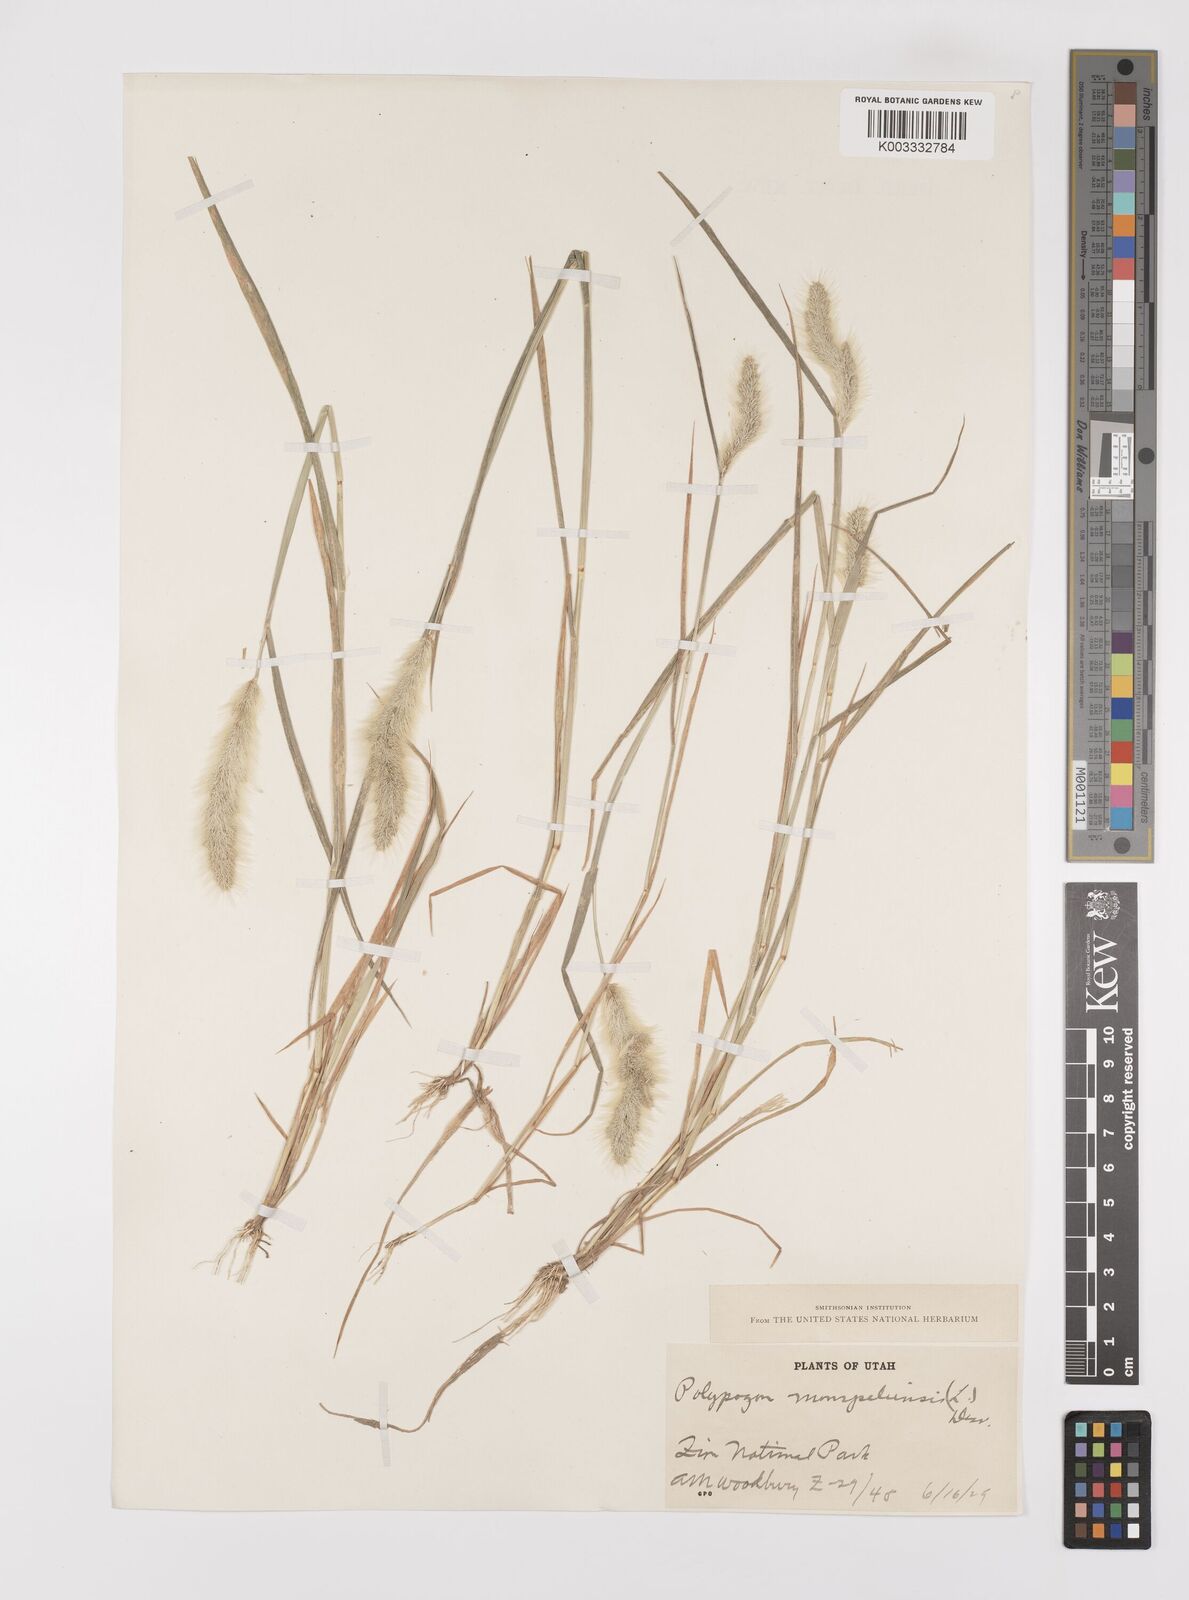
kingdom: Plantae
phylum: Tracheophyta
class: Liliopsida
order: Poales
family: Poaceae
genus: Polypogon
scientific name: Polypogon monspeliensis
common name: Annual rabbitsfoot grass
